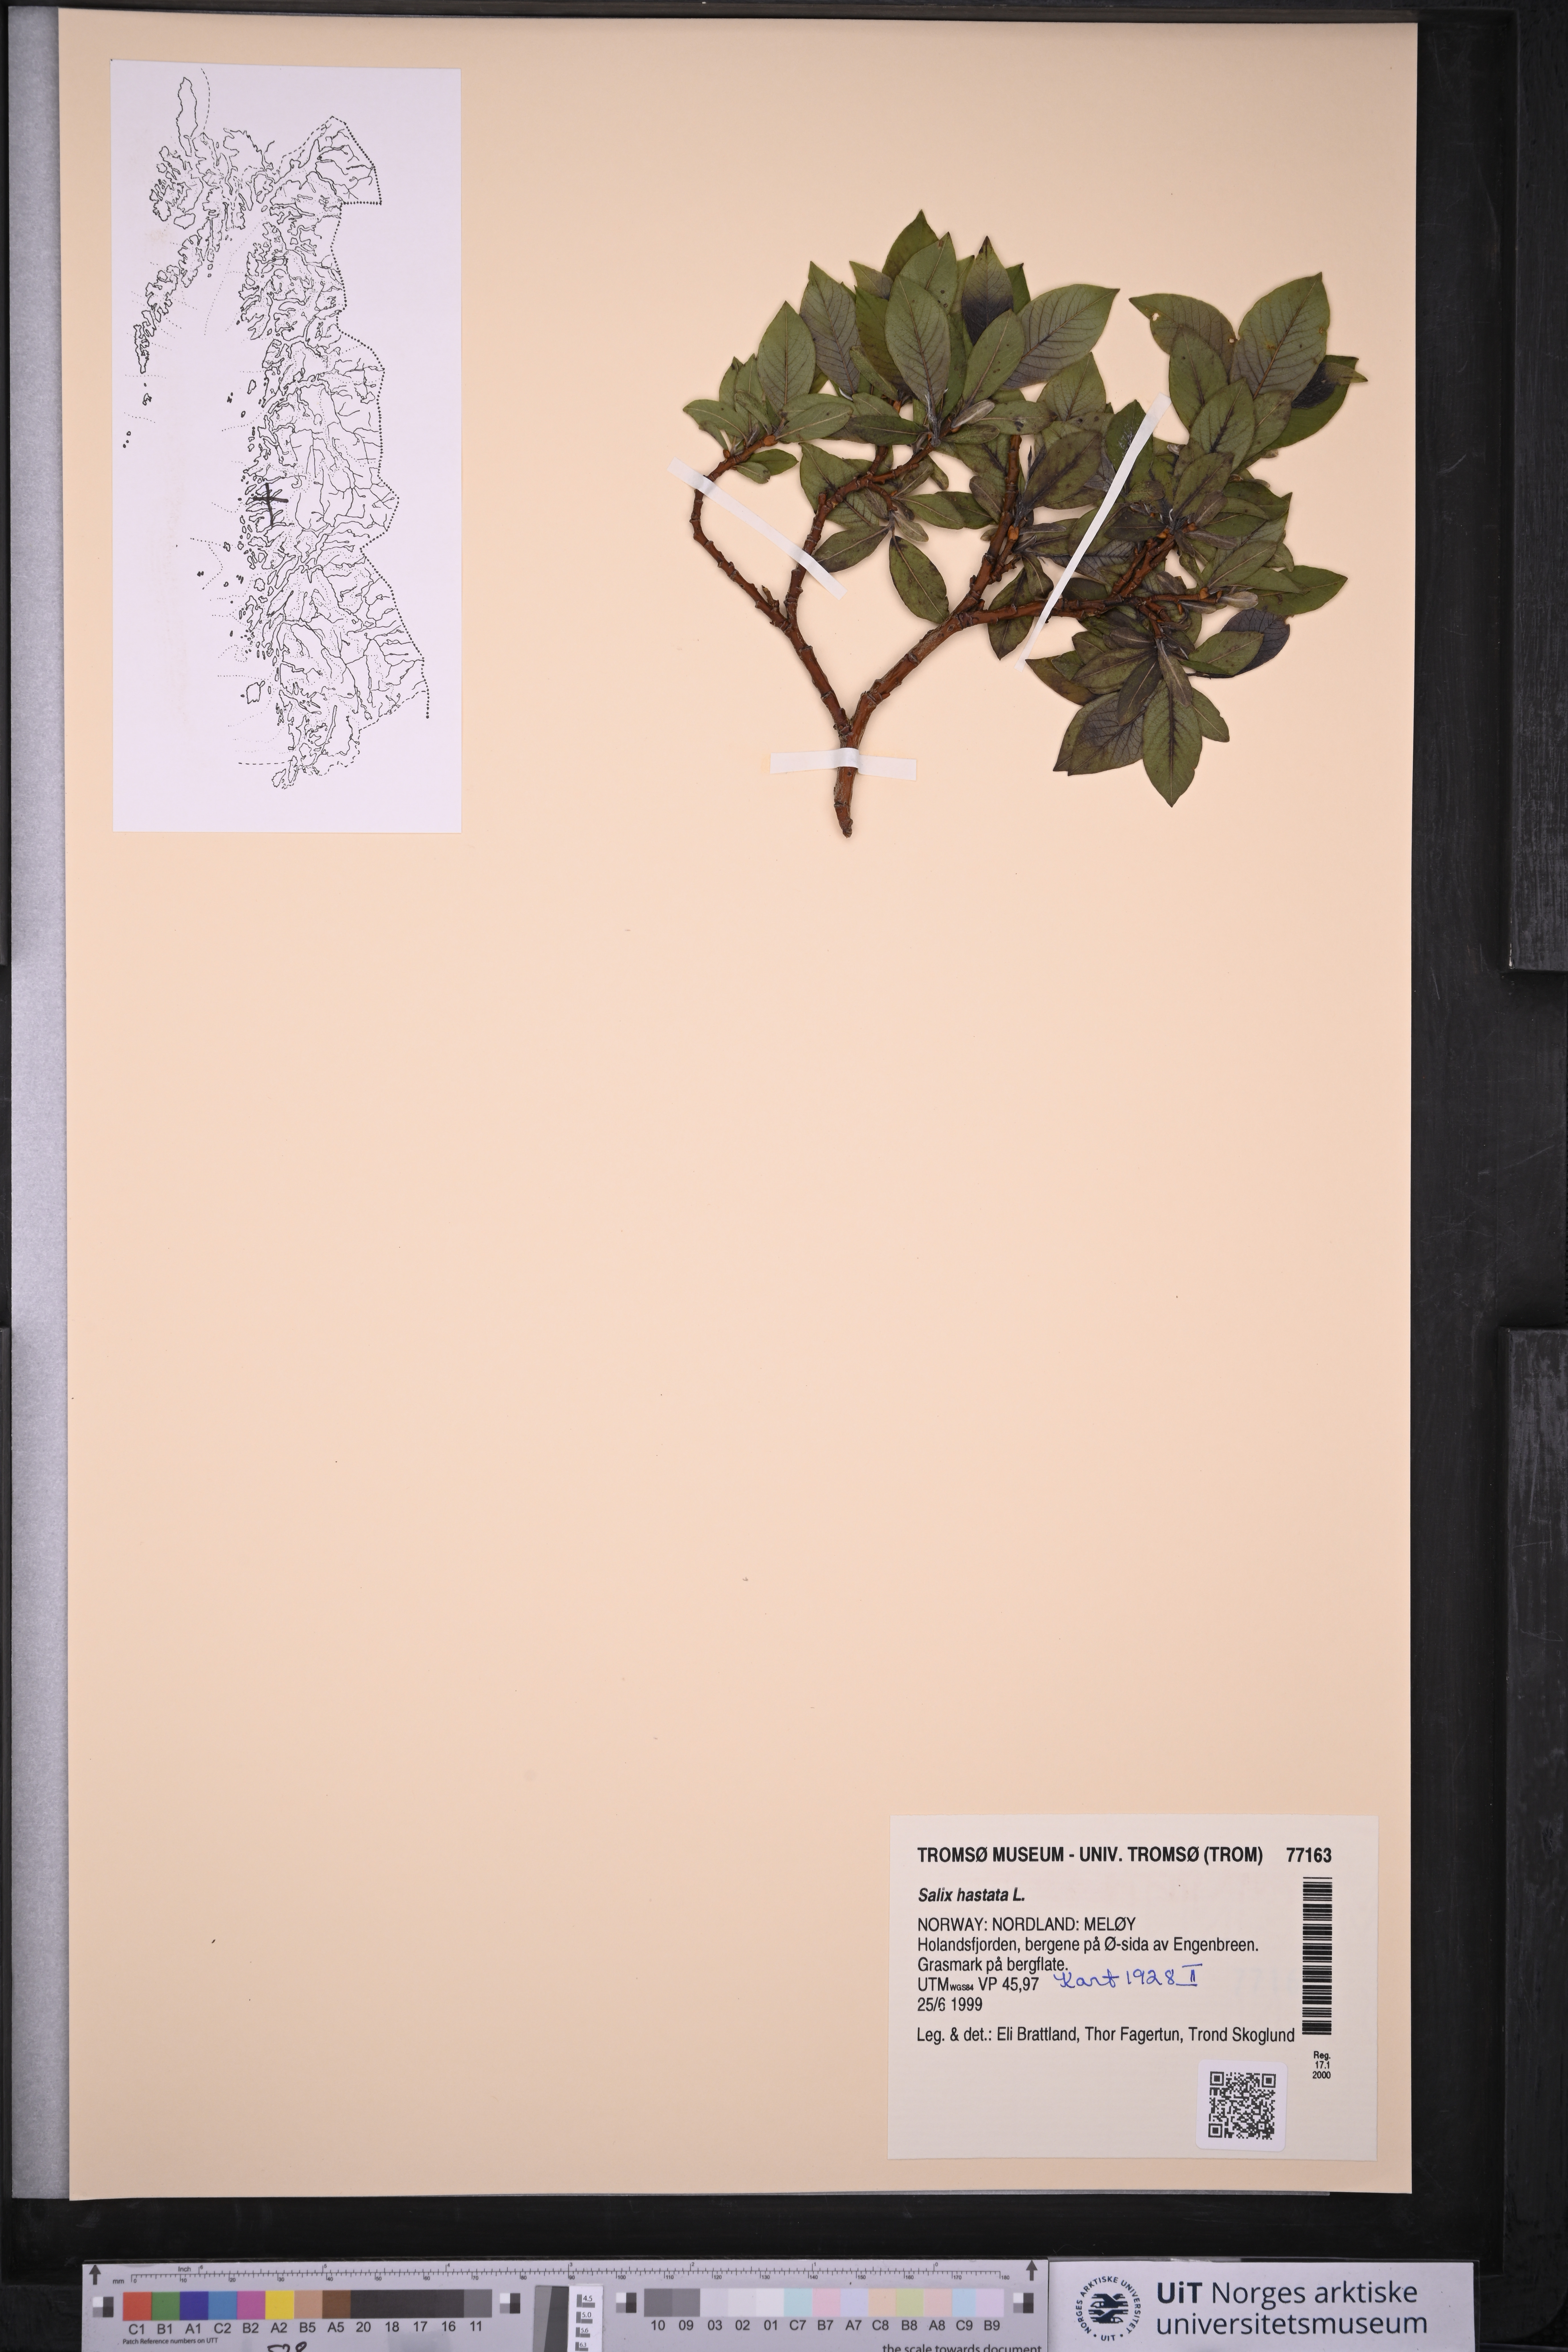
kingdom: Plantae
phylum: Tracheophyta
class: Magnoliopsida
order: Malpighiales
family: Salicaceae
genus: Salix
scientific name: Salix hastata
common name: Halberd willow
